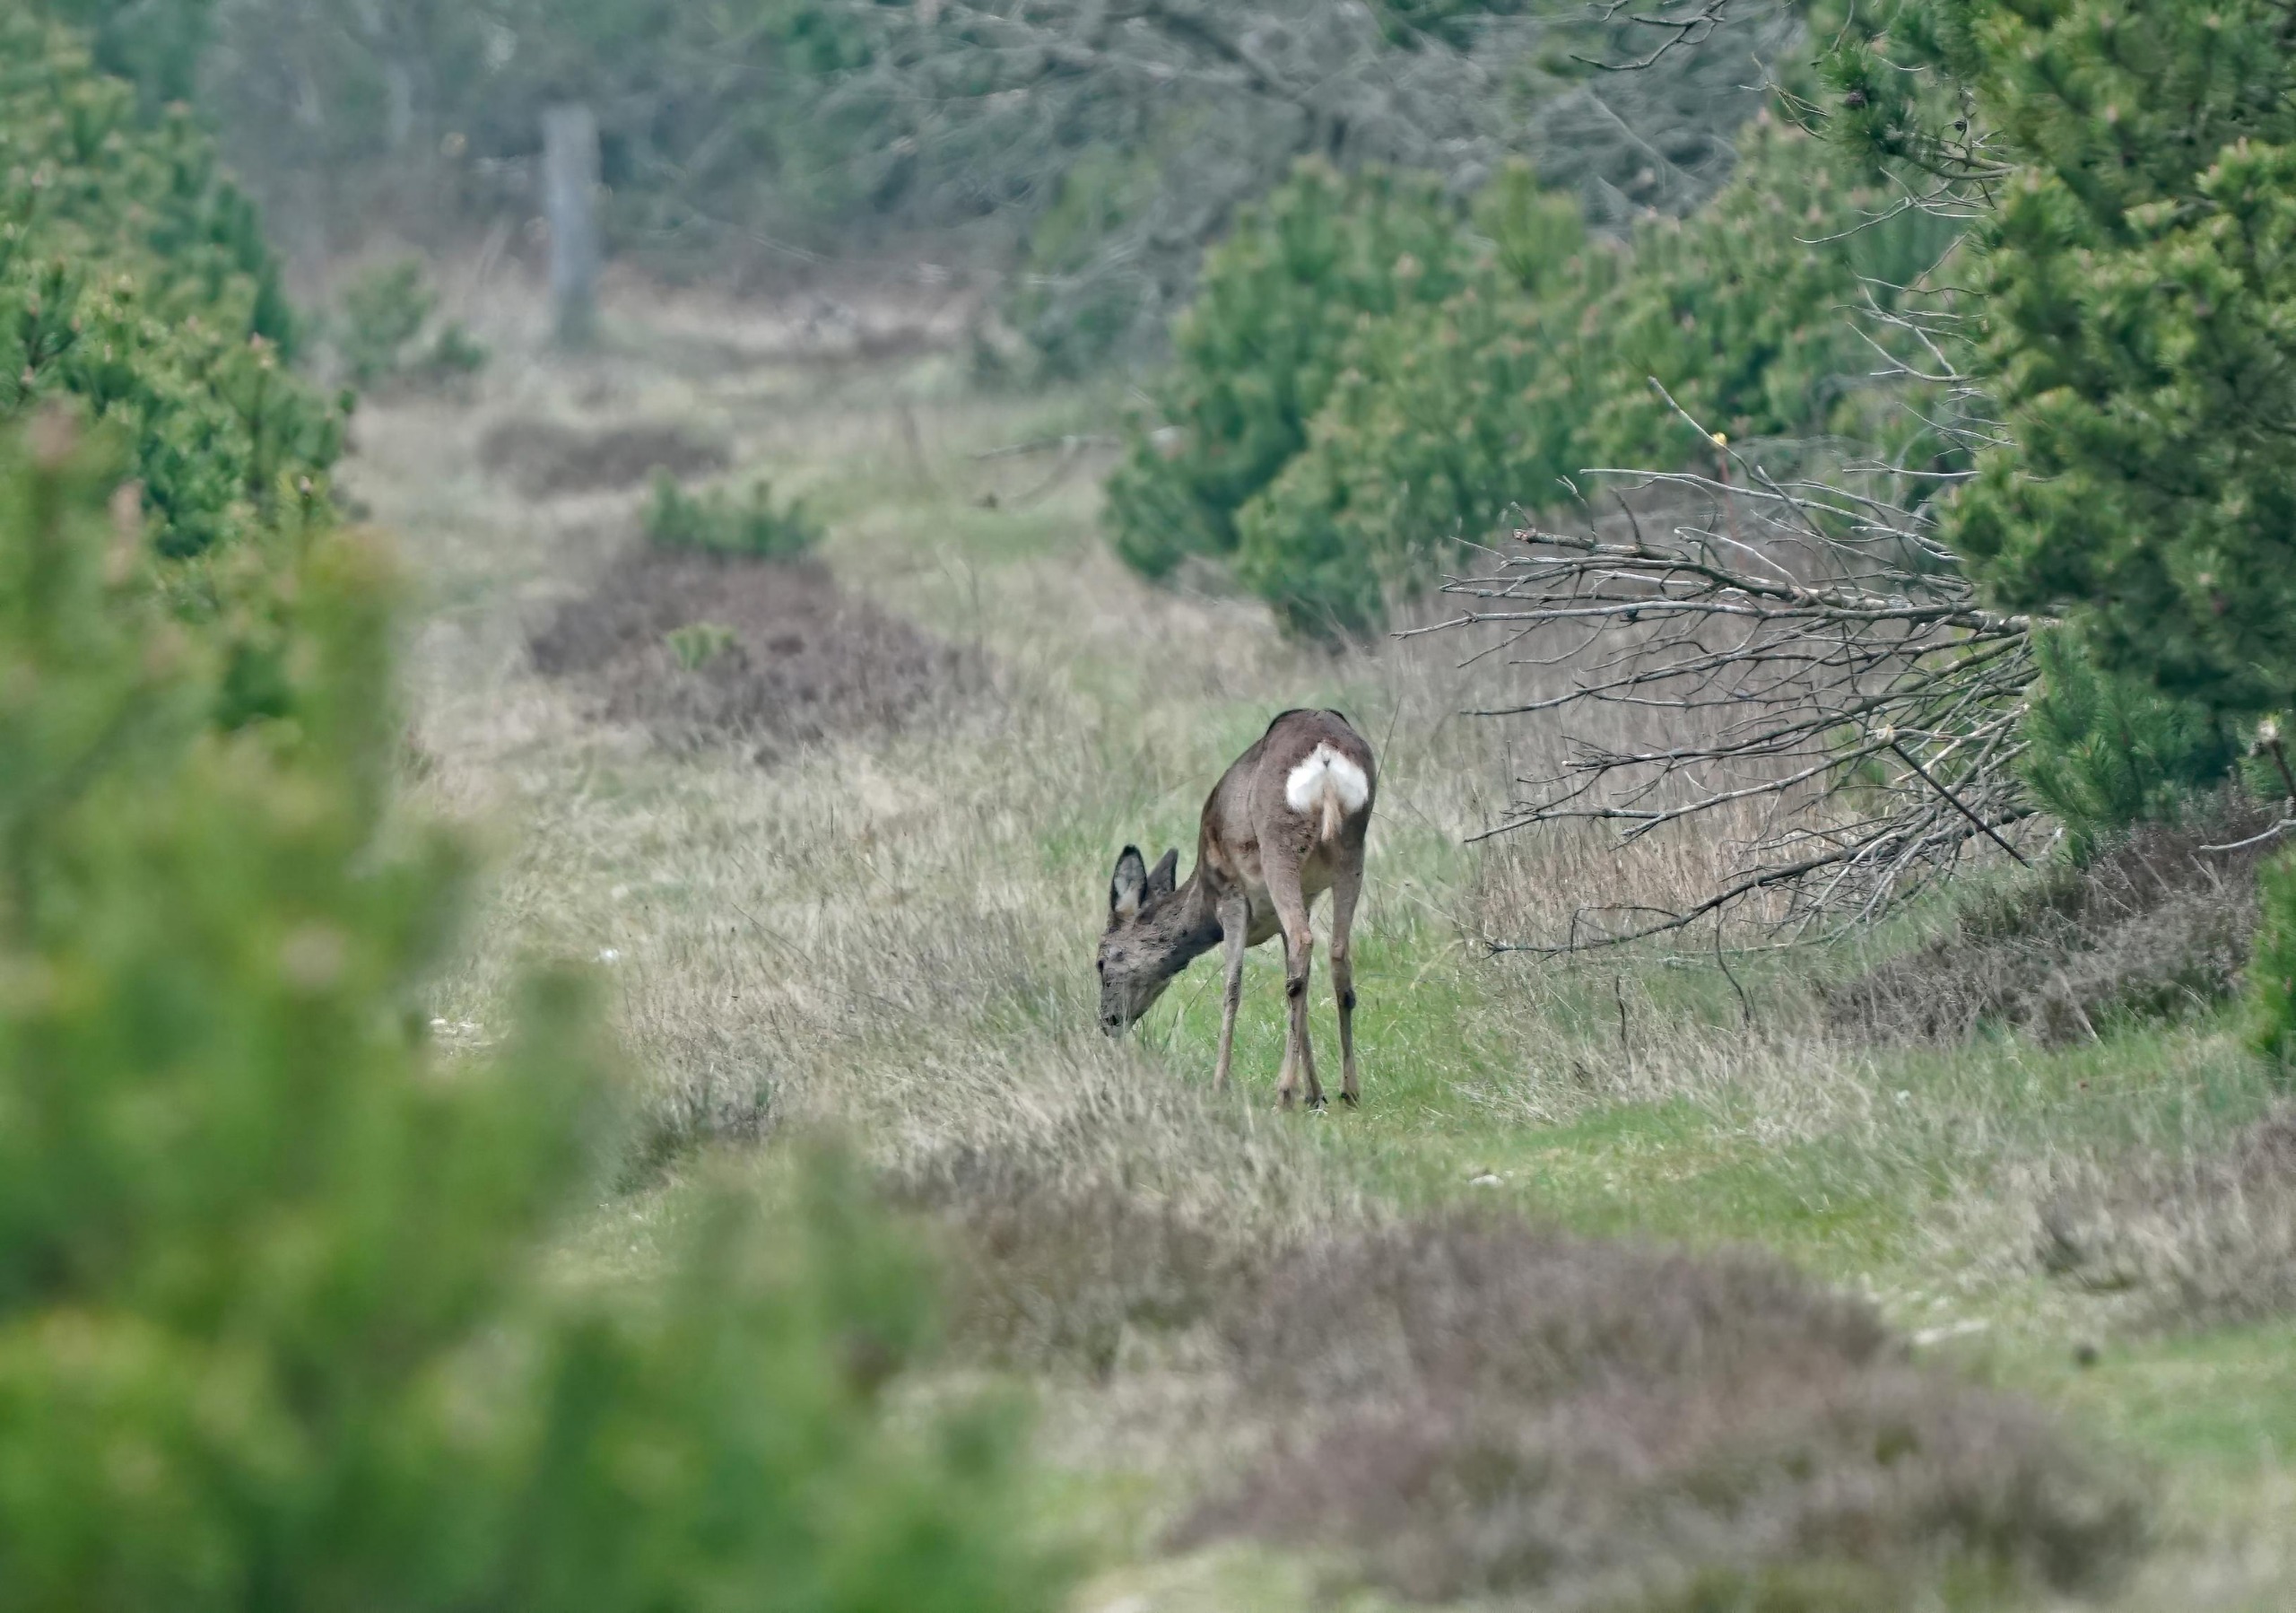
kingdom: Animalia
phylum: Chordata
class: Mammalia
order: Artiodactyla
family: Cervidae
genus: Capreolus
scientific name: Capreolus capreolus
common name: Rådyr
